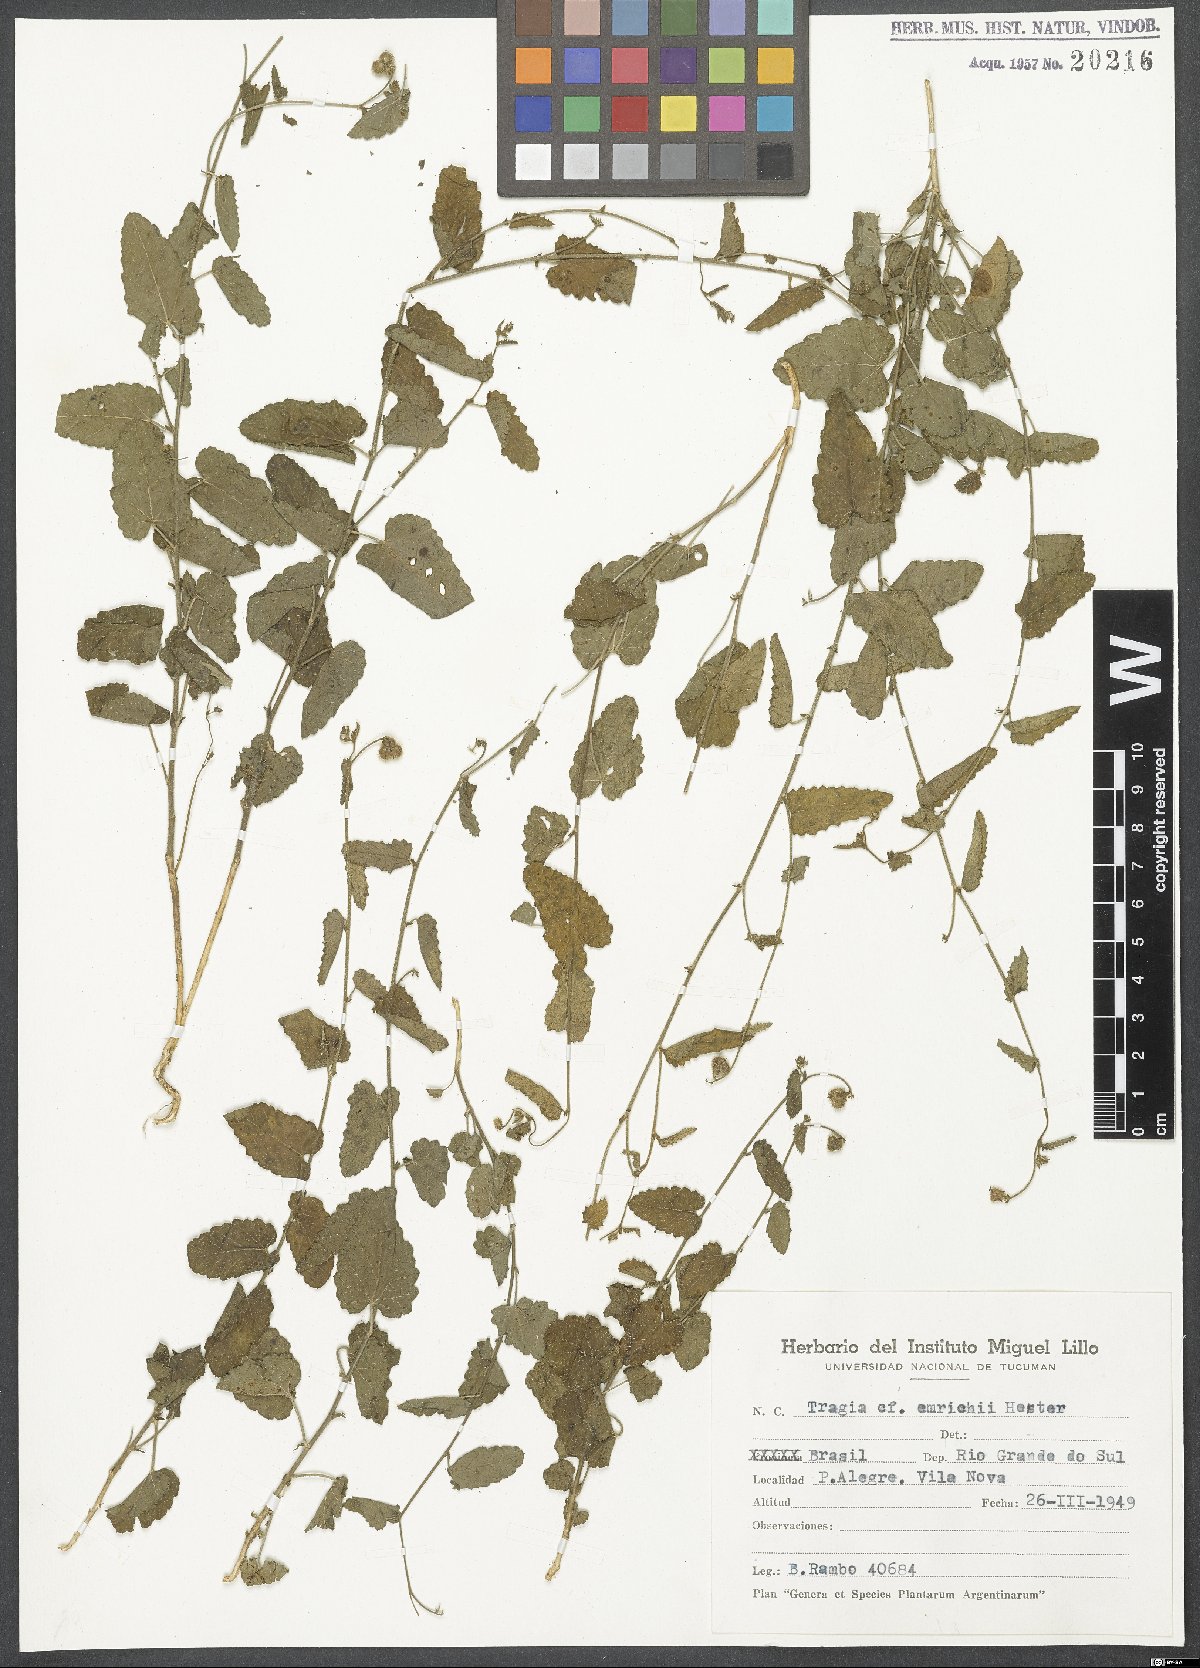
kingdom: Plantae
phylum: Tracheophyta
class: Magnoliopsida
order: Malpighiales
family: Euphorbiaceae
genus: Tragia
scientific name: Tragia bahiensis
